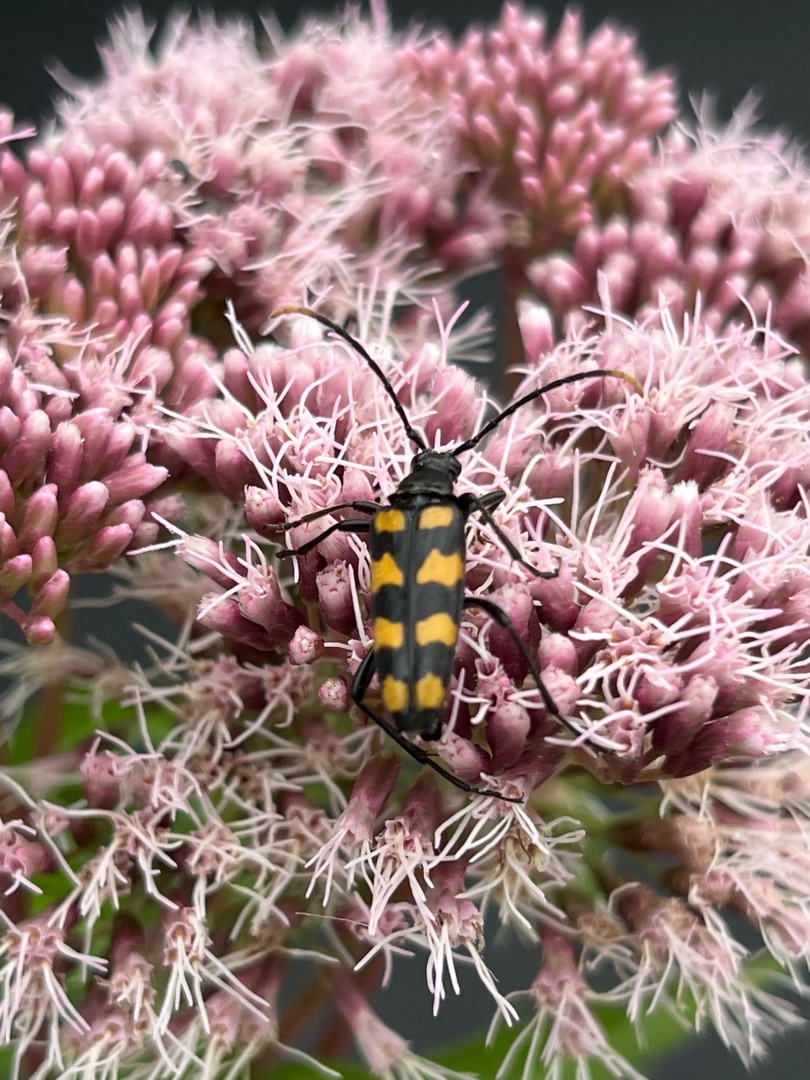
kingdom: Animalia
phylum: Arthropoda
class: Insecta
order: Coleoptera
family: Cerambycidae
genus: Leptura
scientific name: Leptura quadrifasciata
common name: Firebåndet blomsterbuk
